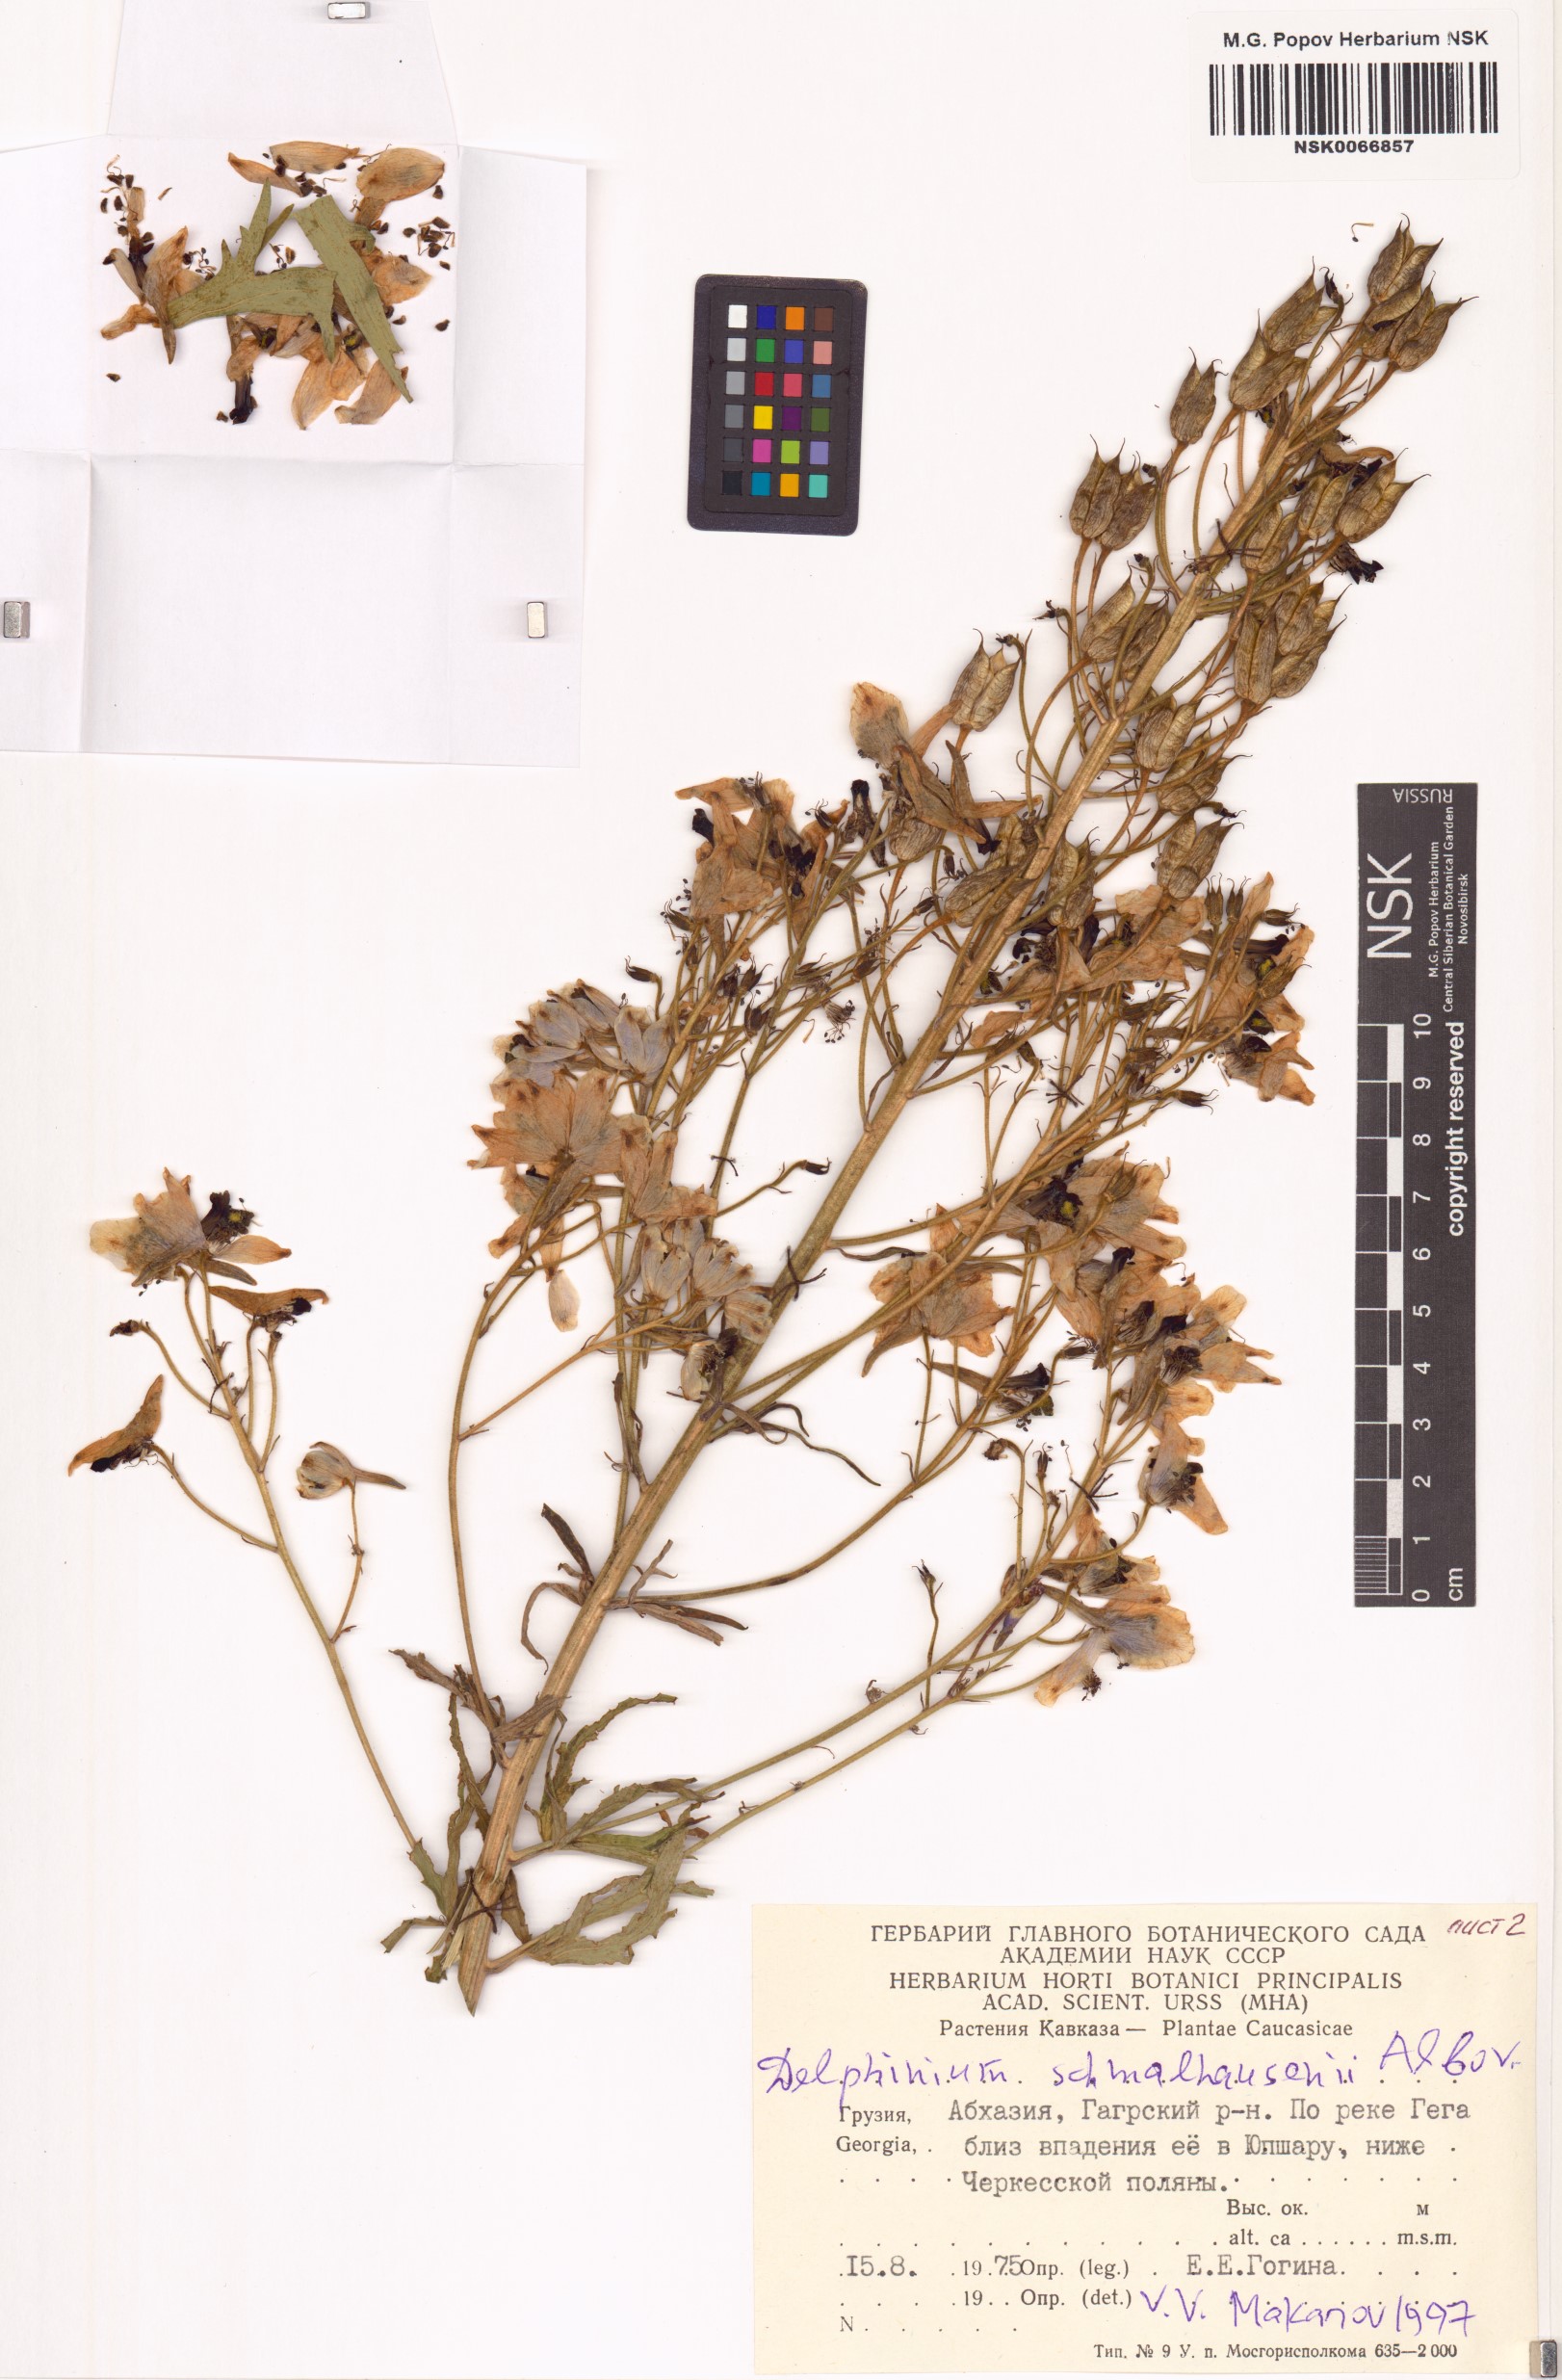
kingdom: Plantae
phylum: Tracheophyta
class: Magnoliopsida
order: Ranunculales
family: Ranunculaceae
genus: Delphinium
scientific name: Delphinium schmalhausenii
